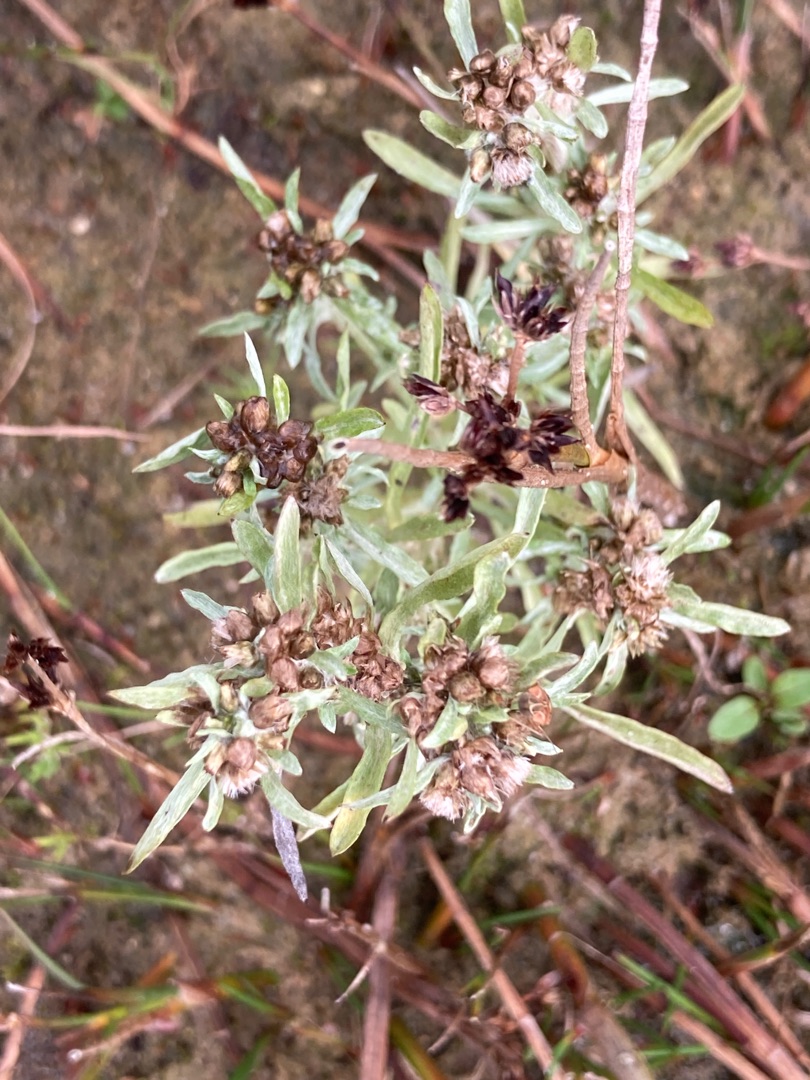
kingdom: Plantae
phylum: Tracheophyta
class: Magnoliopsida
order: Asterales
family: Asteraceae
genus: Gnaphalium
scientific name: Gnaphalium uliginosum
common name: Sump-evighedsblomst
